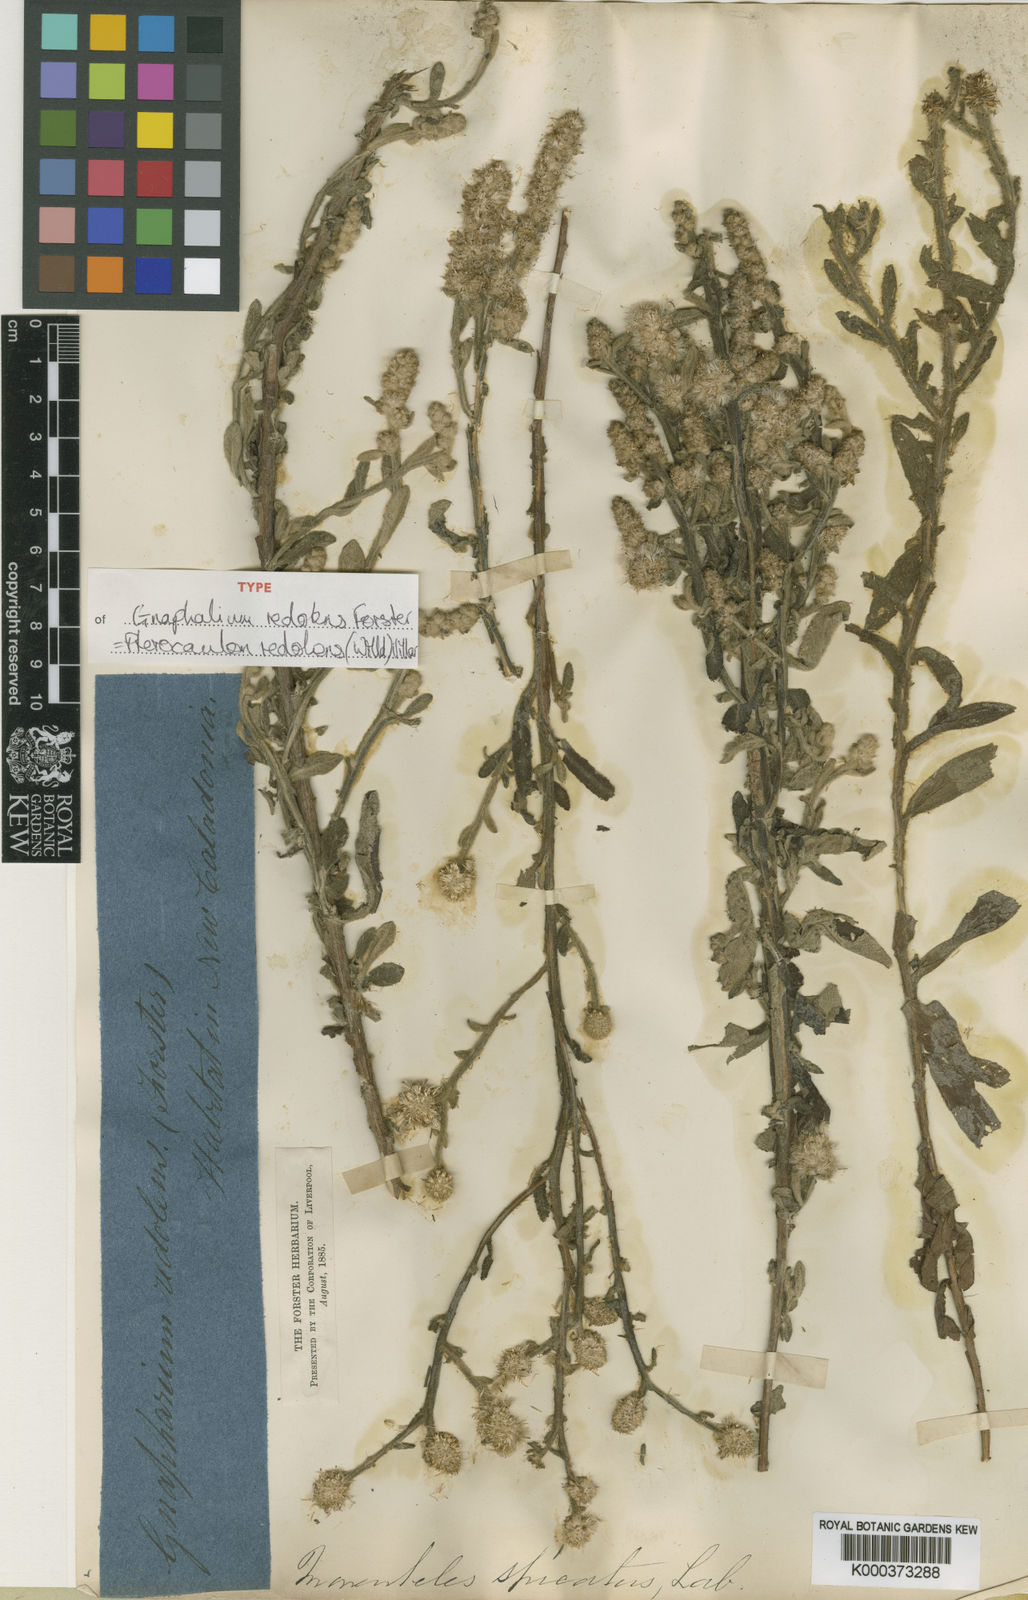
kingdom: Plantae
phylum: Tracheophyta
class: Magnoliopsida
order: Asterales
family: Asteraceae
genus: Pterocaulon
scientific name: Pterocaulon redolens
